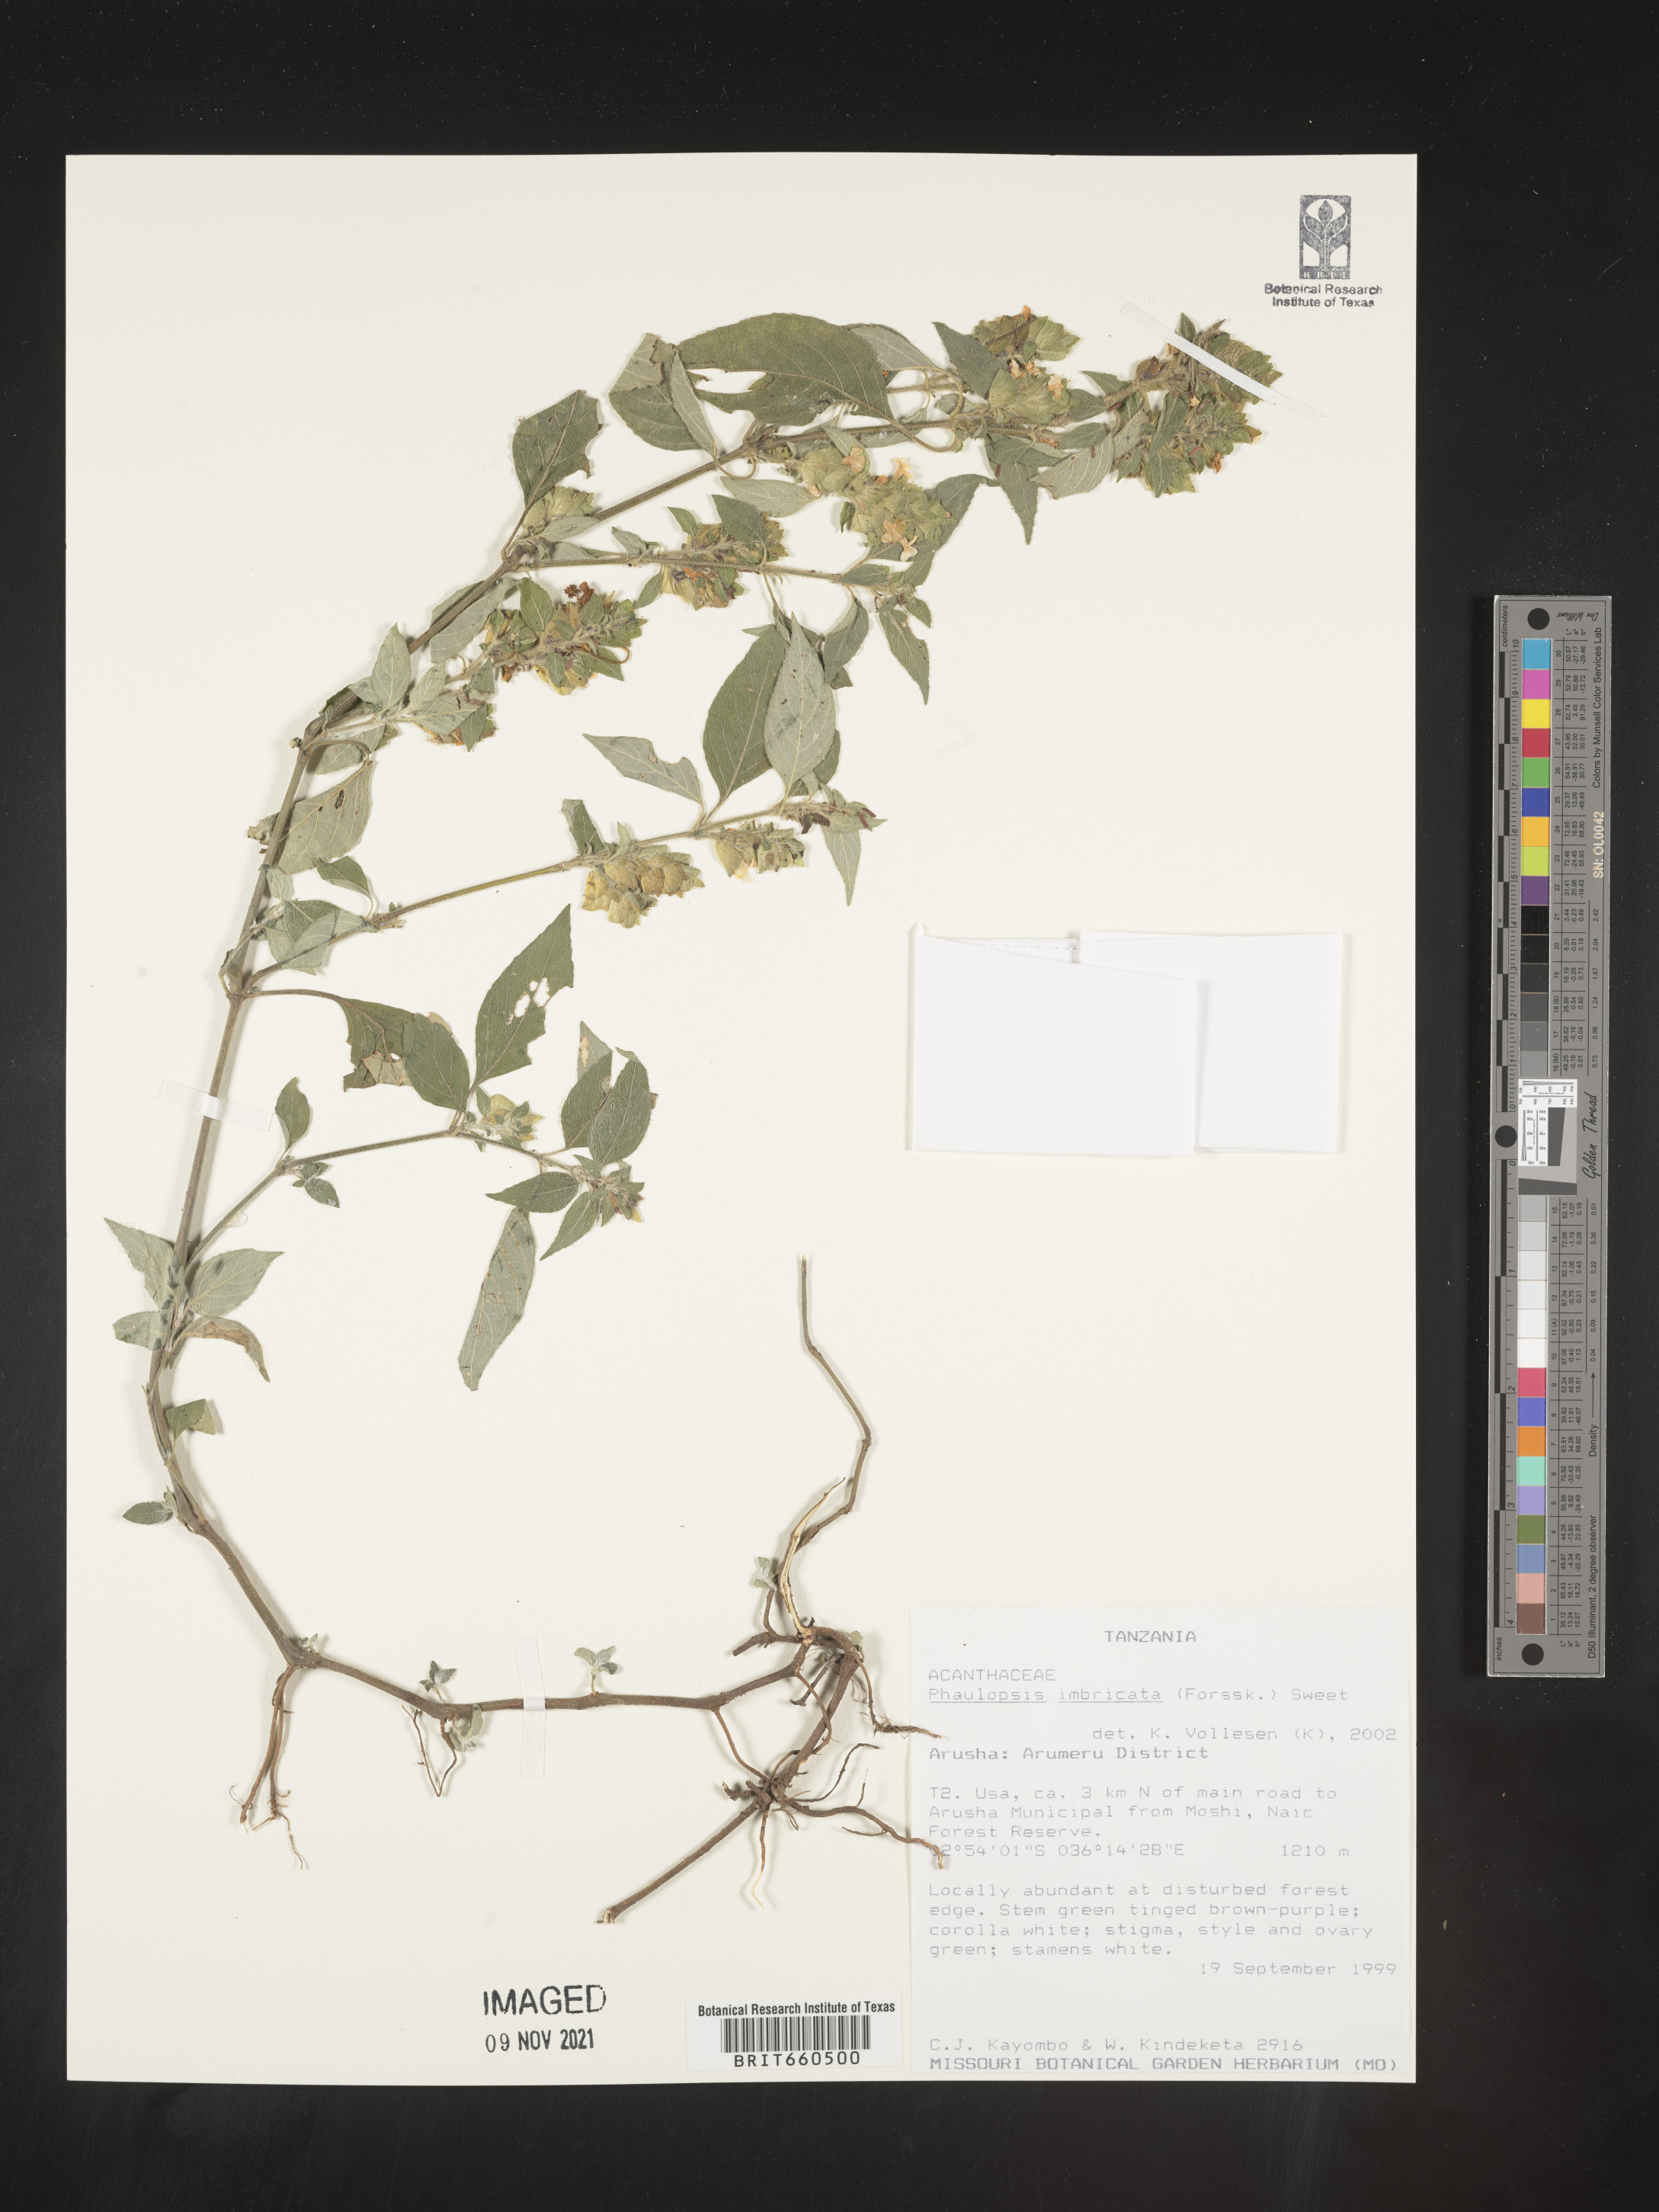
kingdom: Plantae
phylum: Tracheophyta
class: Magnoliopsida
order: Lamiales
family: Acanthaceae
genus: Phaulopsis
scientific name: Phaulopsis
